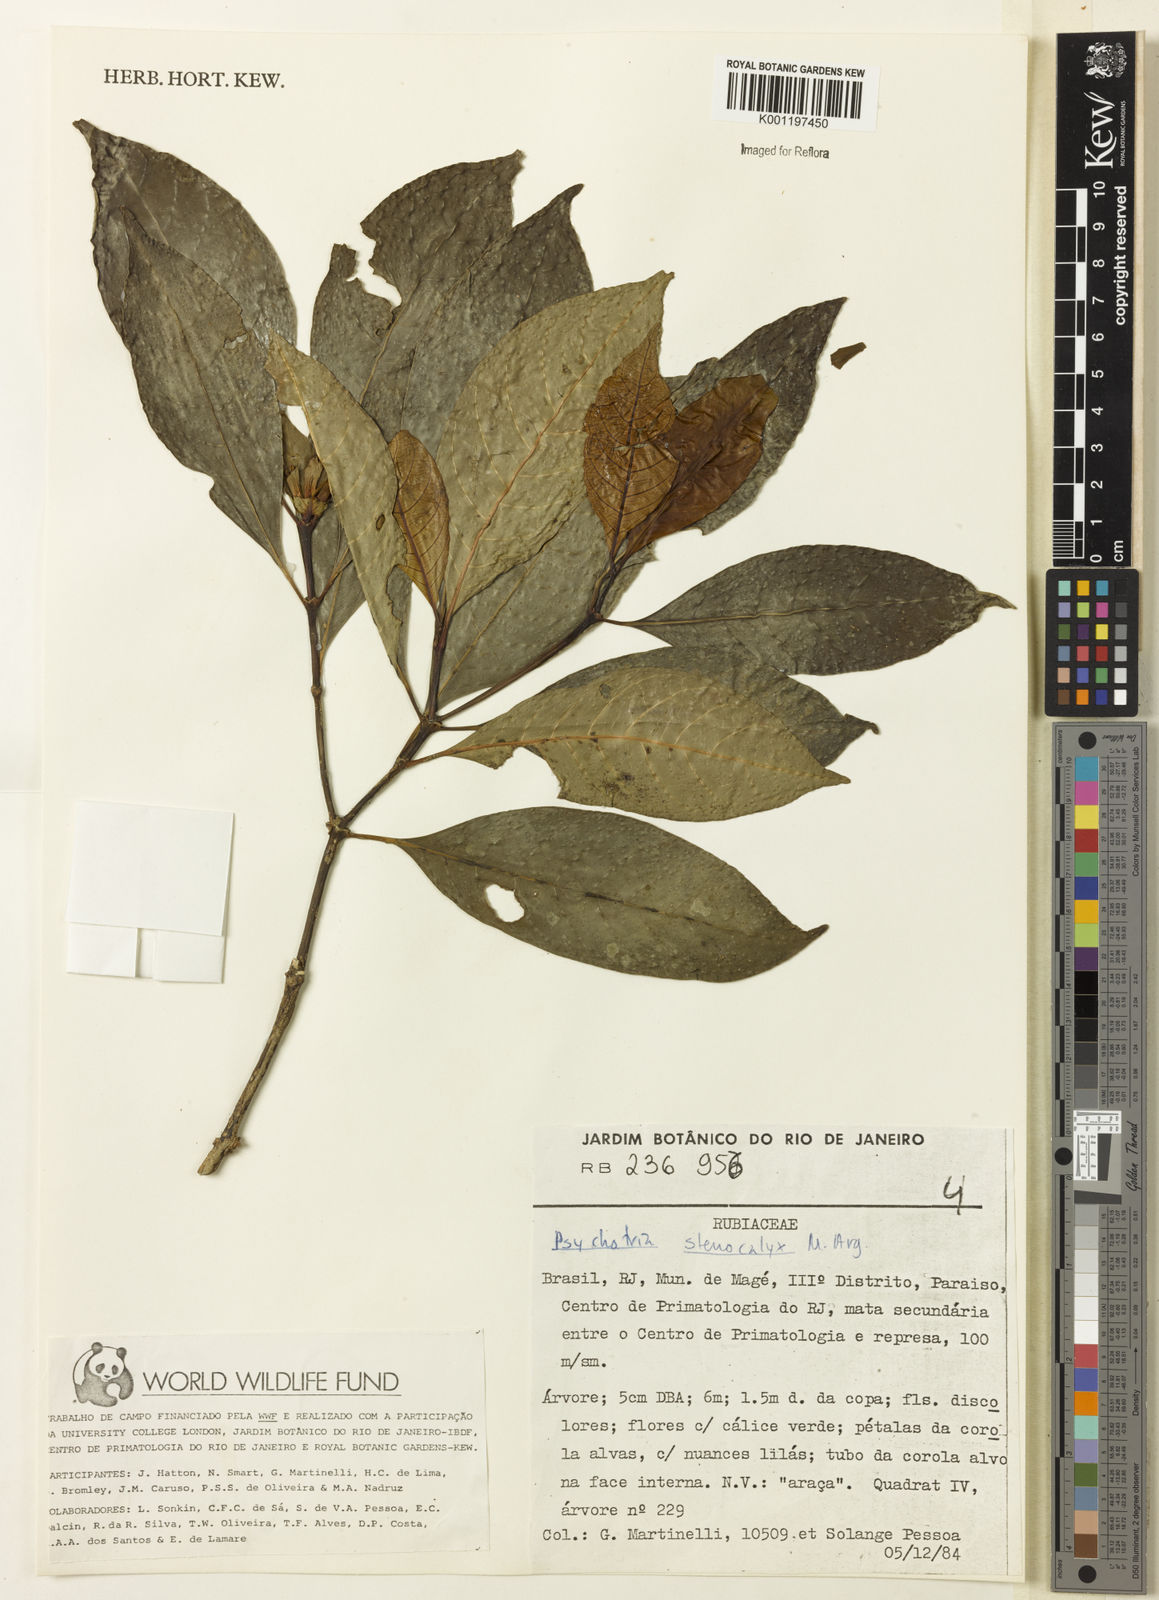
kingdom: Plantae
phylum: Tracheophyta
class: Magnoliopsida
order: Gentianales
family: Rubiaceae
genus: Psychotria
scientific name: Psychotria
